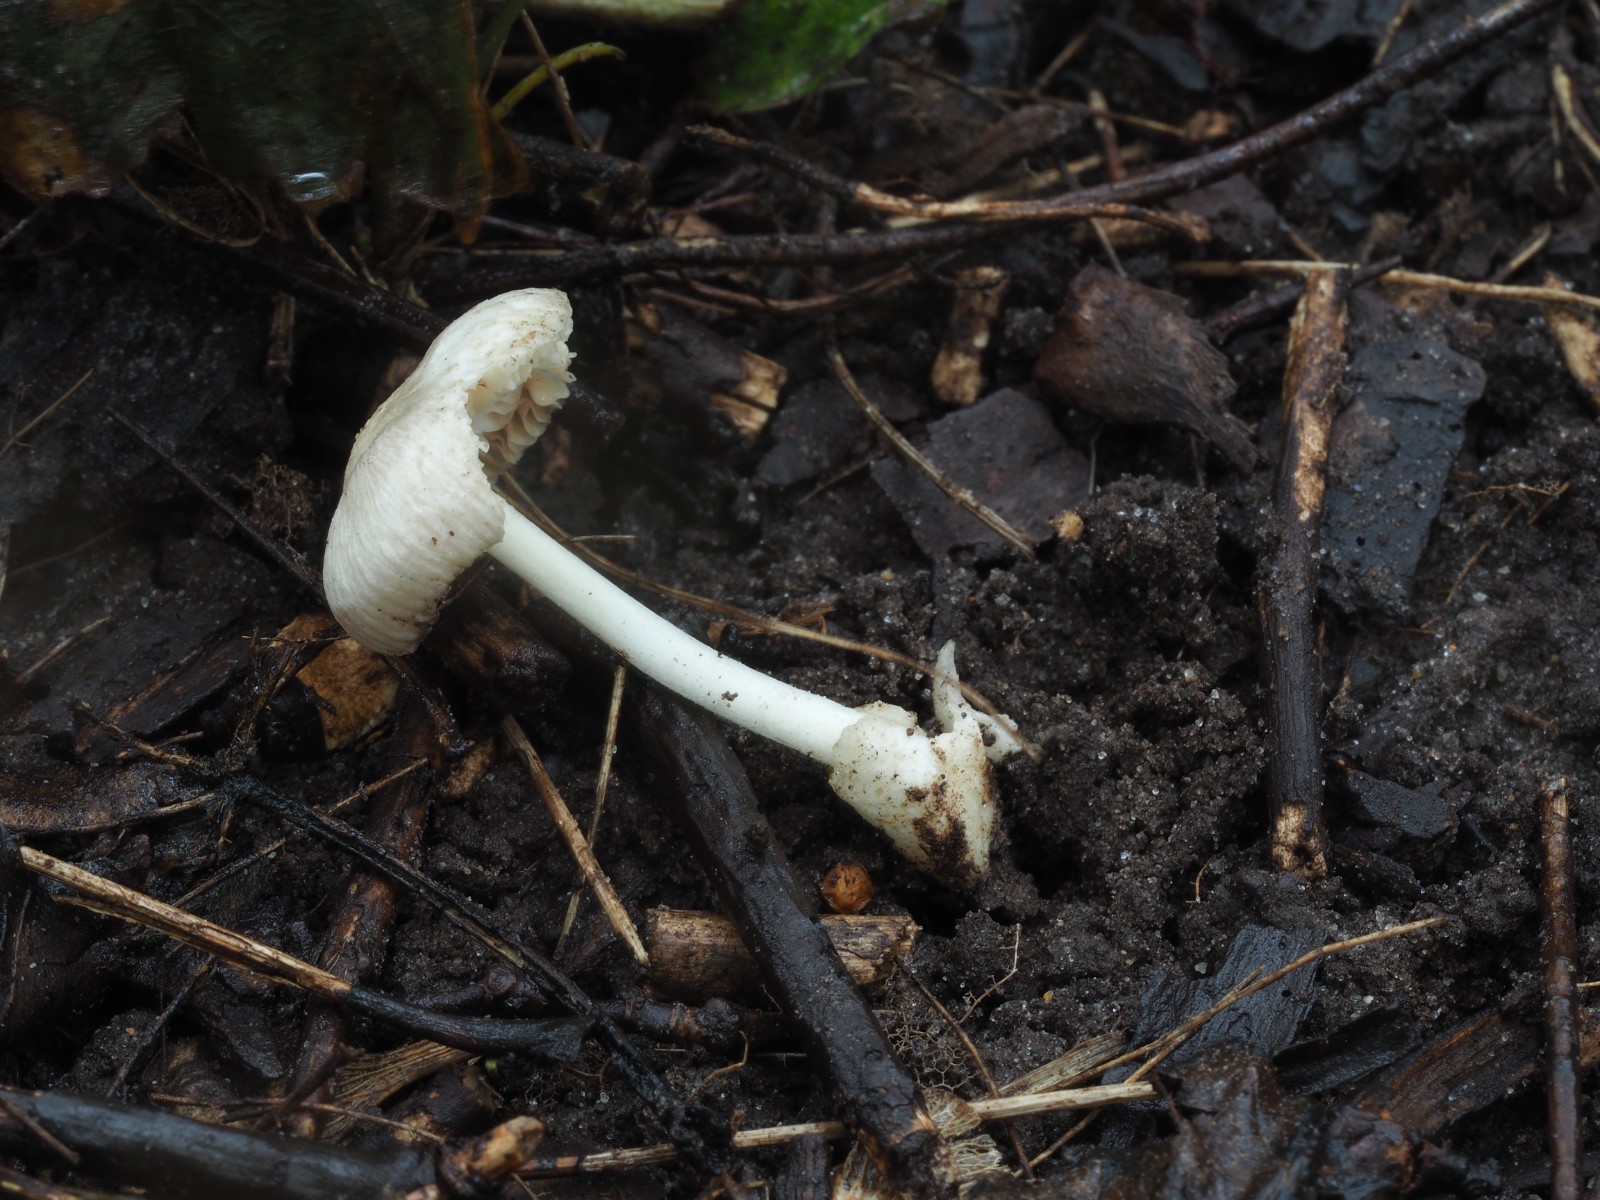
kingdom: Fungi
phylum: Basidiomycota
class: Agaricomycetes
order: Agaricales
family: Pluteaceae
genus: Volvariella
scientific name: Volvariella murinella
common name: musegrå posesvamp
